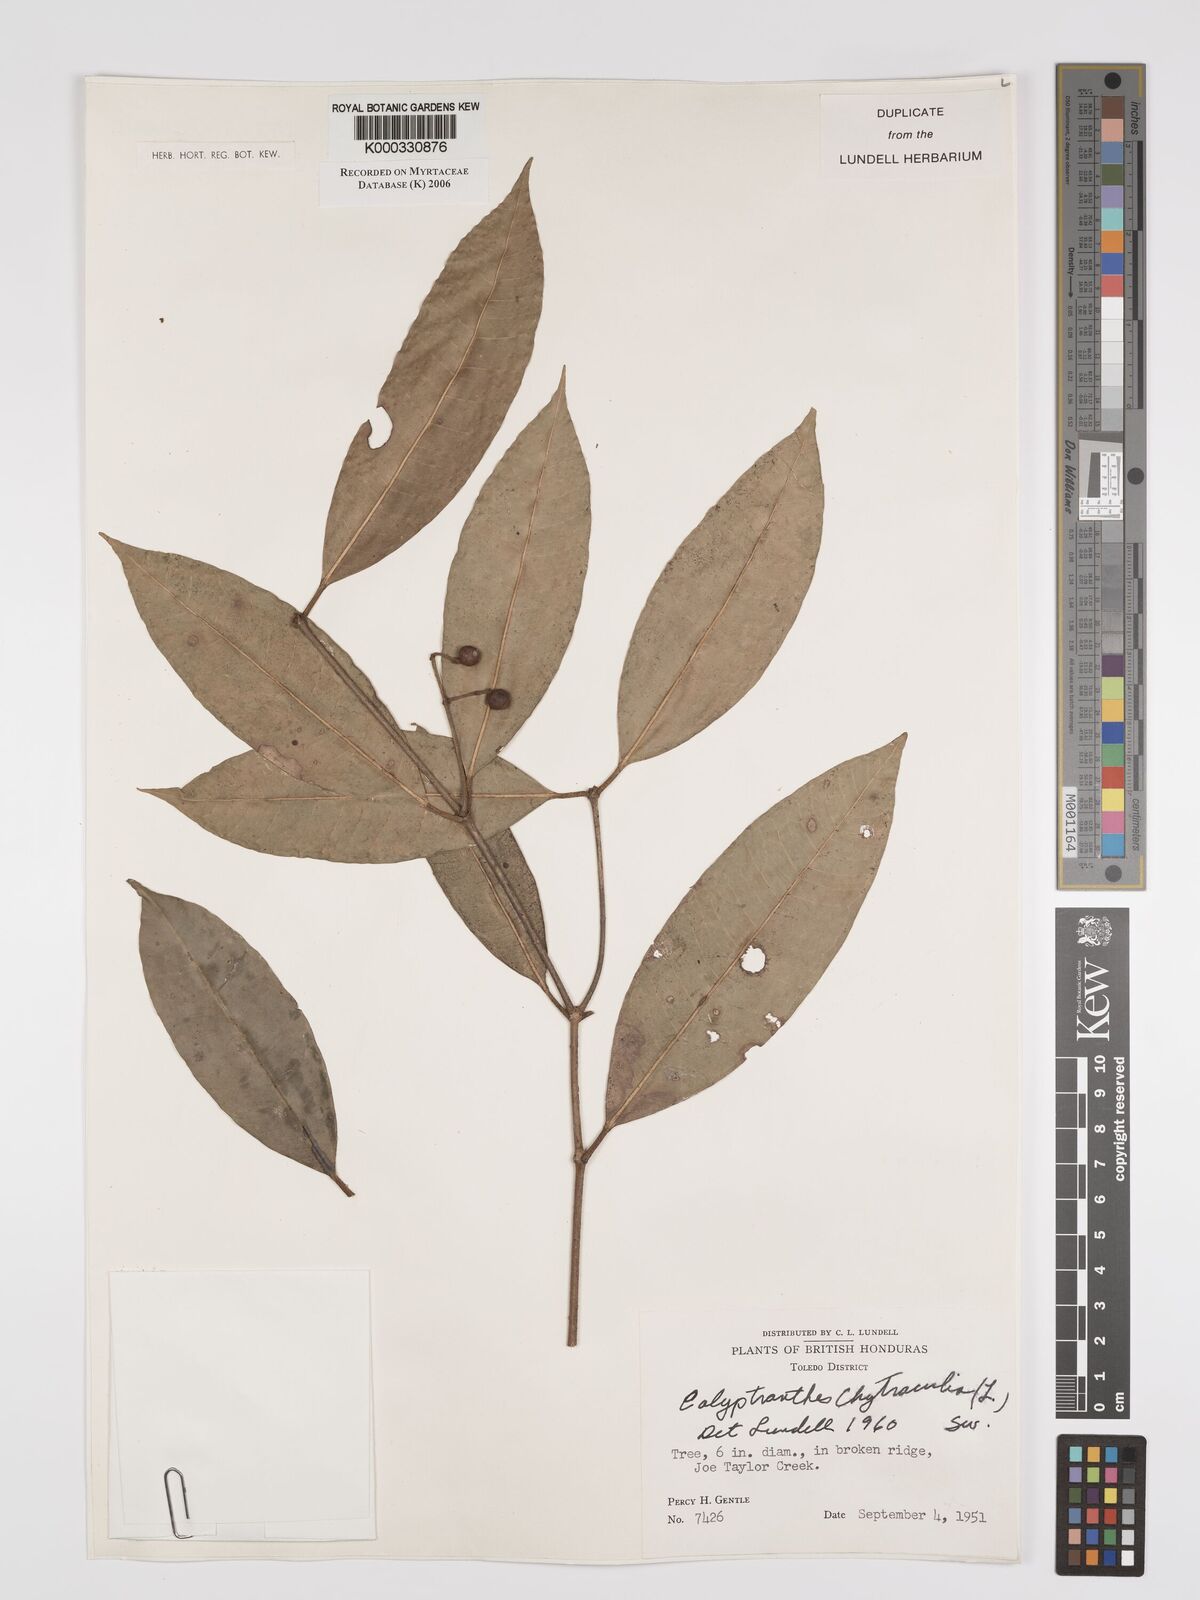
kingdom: Plantae
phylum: Tracheophyta
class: Magnoliopsida
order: Myrtales
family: Myrtaceae
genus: Myrcia
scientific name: Myrcia chytraculia
